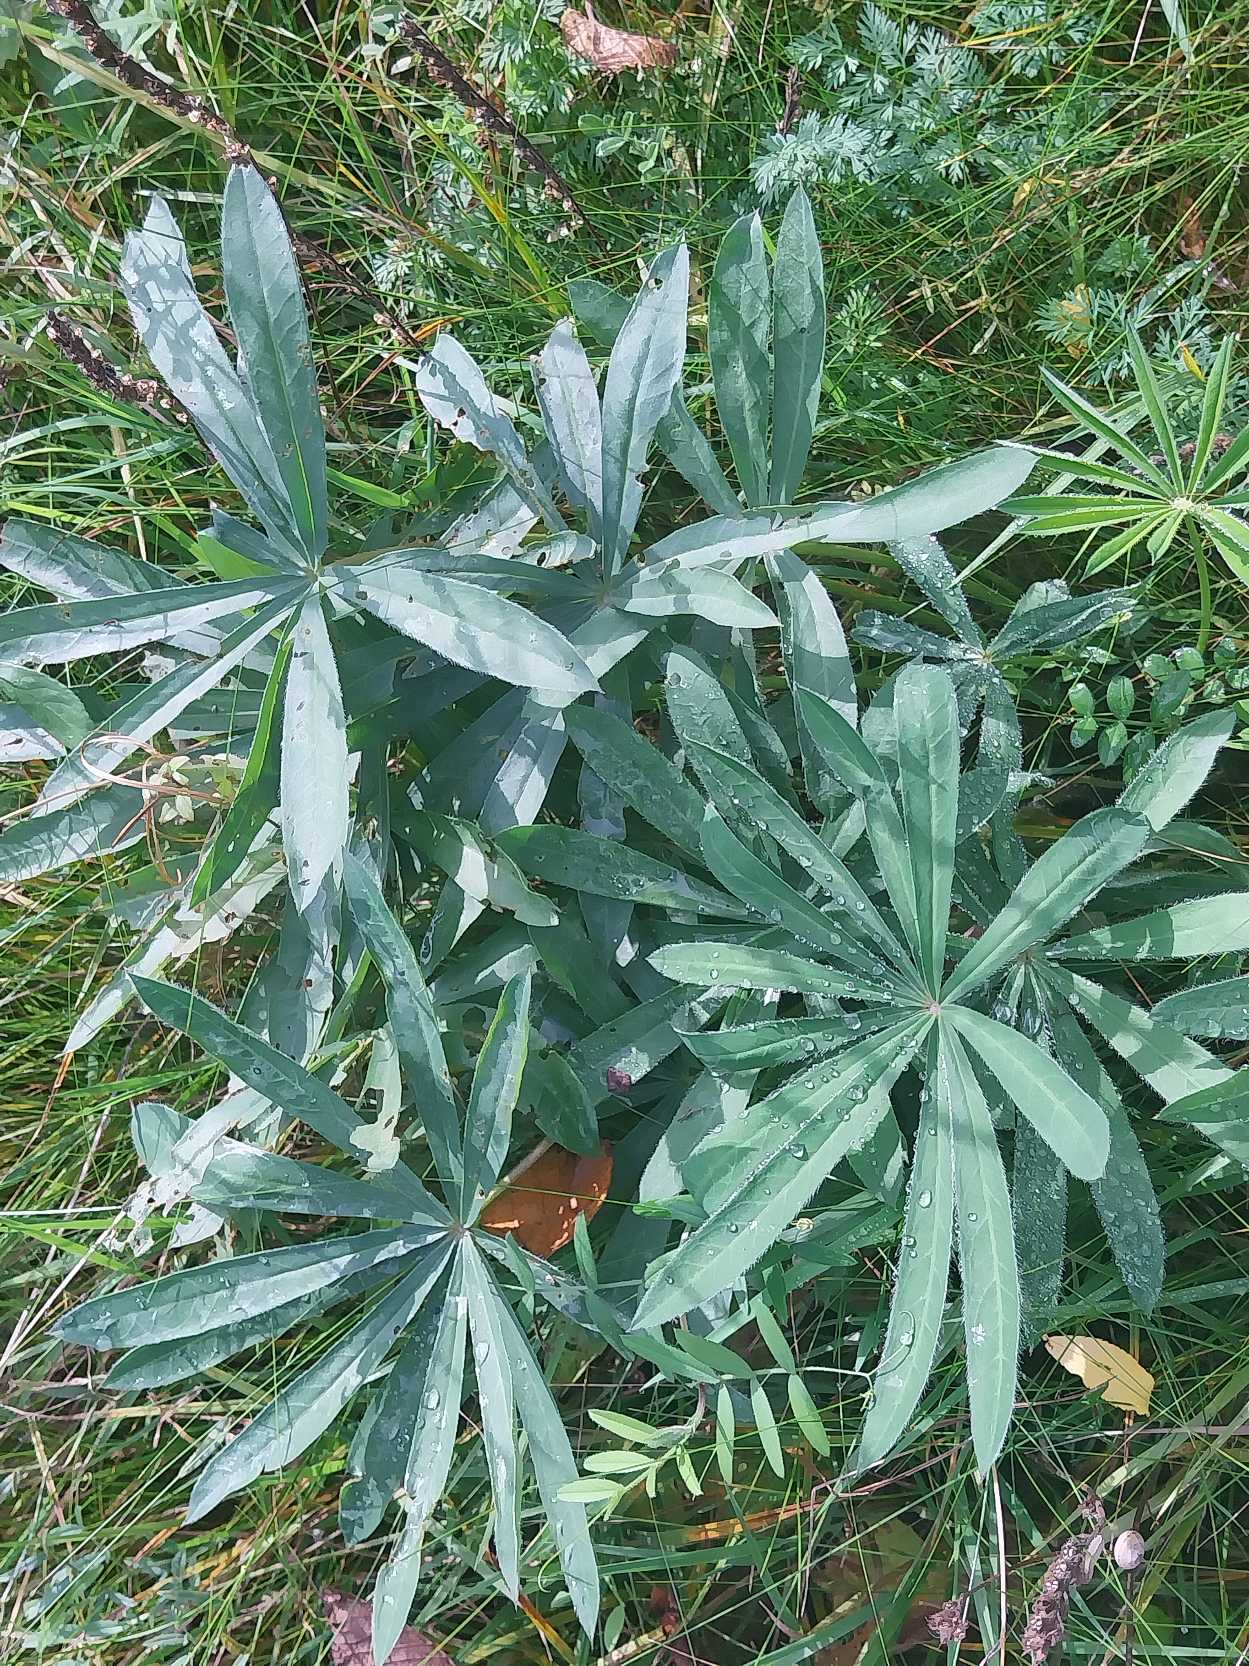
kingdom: Plantae
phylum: Tracheophyta
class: Magnoliopsida
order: Fabales
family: Fabaceae
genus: Lupinus
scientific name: Lupinus polyphyllus
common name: Mangebladet lupin
